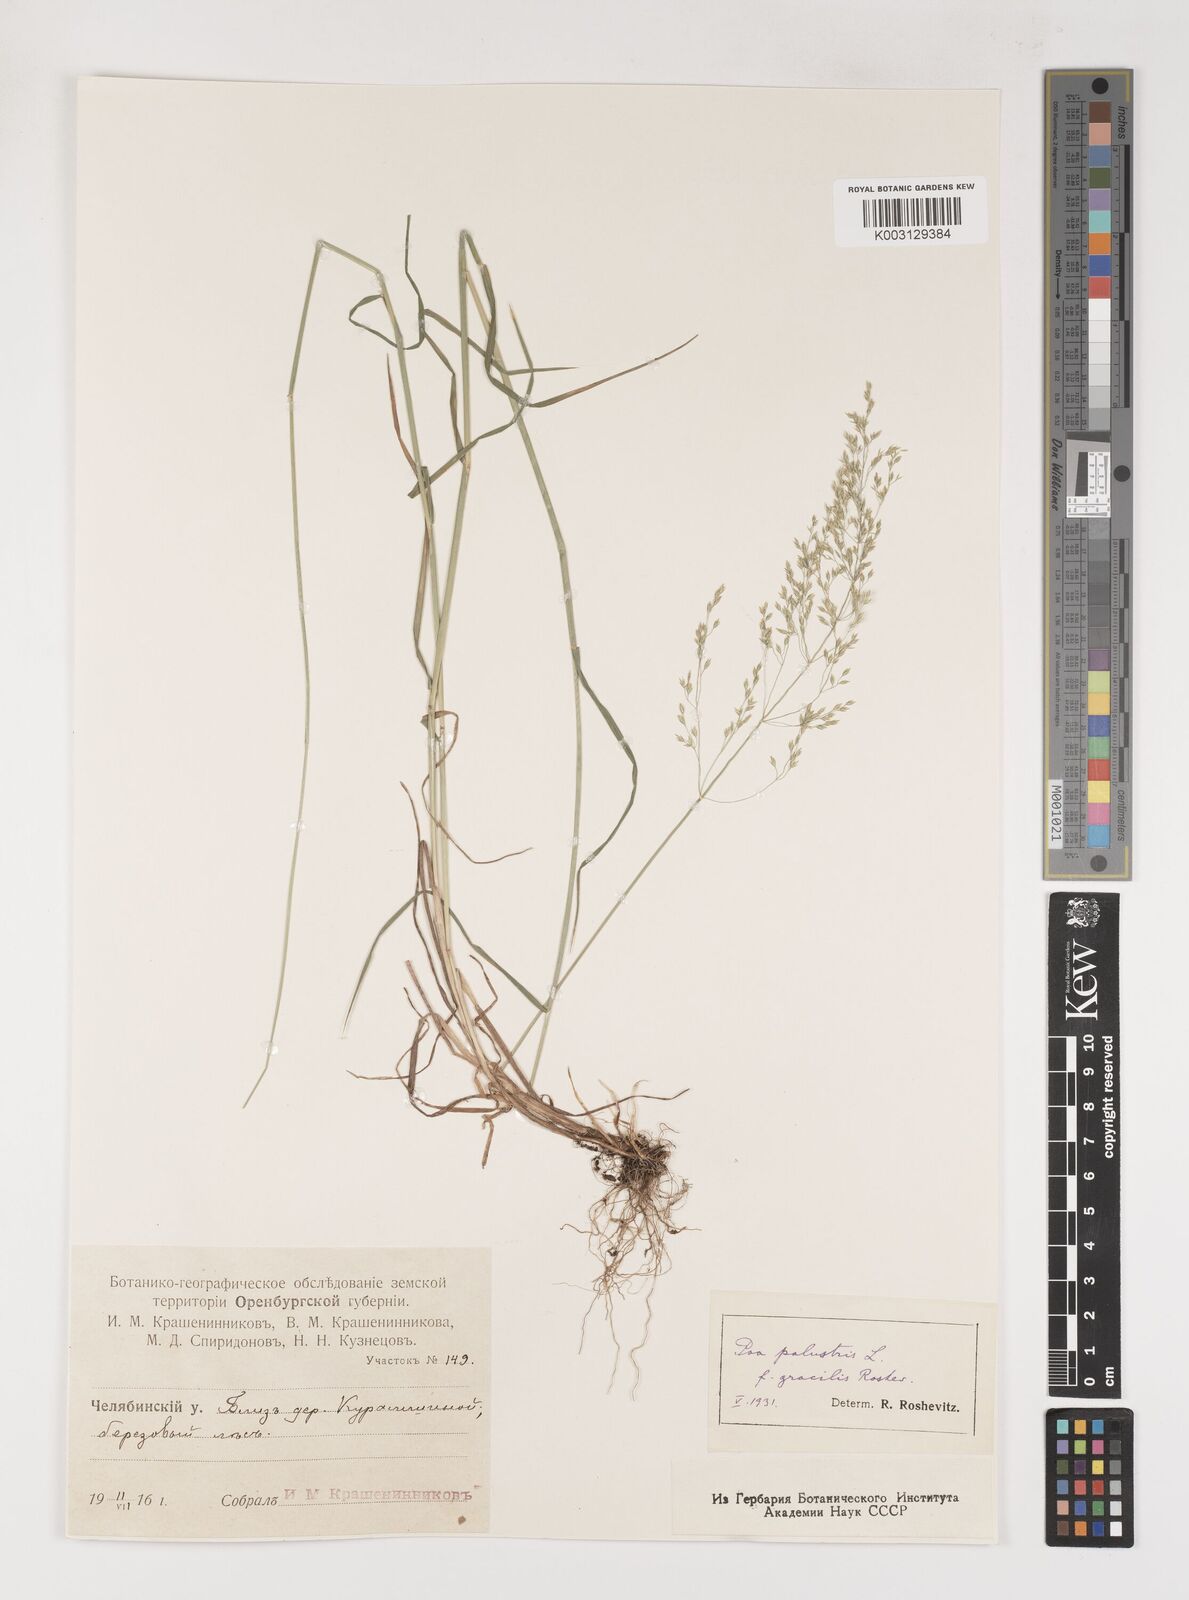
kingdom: Plantae
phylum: Tracheophyta
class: Liliopsida
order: Poales
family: Poaceae
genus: Poa
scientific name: Poa palustris
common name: Swamp meadow-grass
